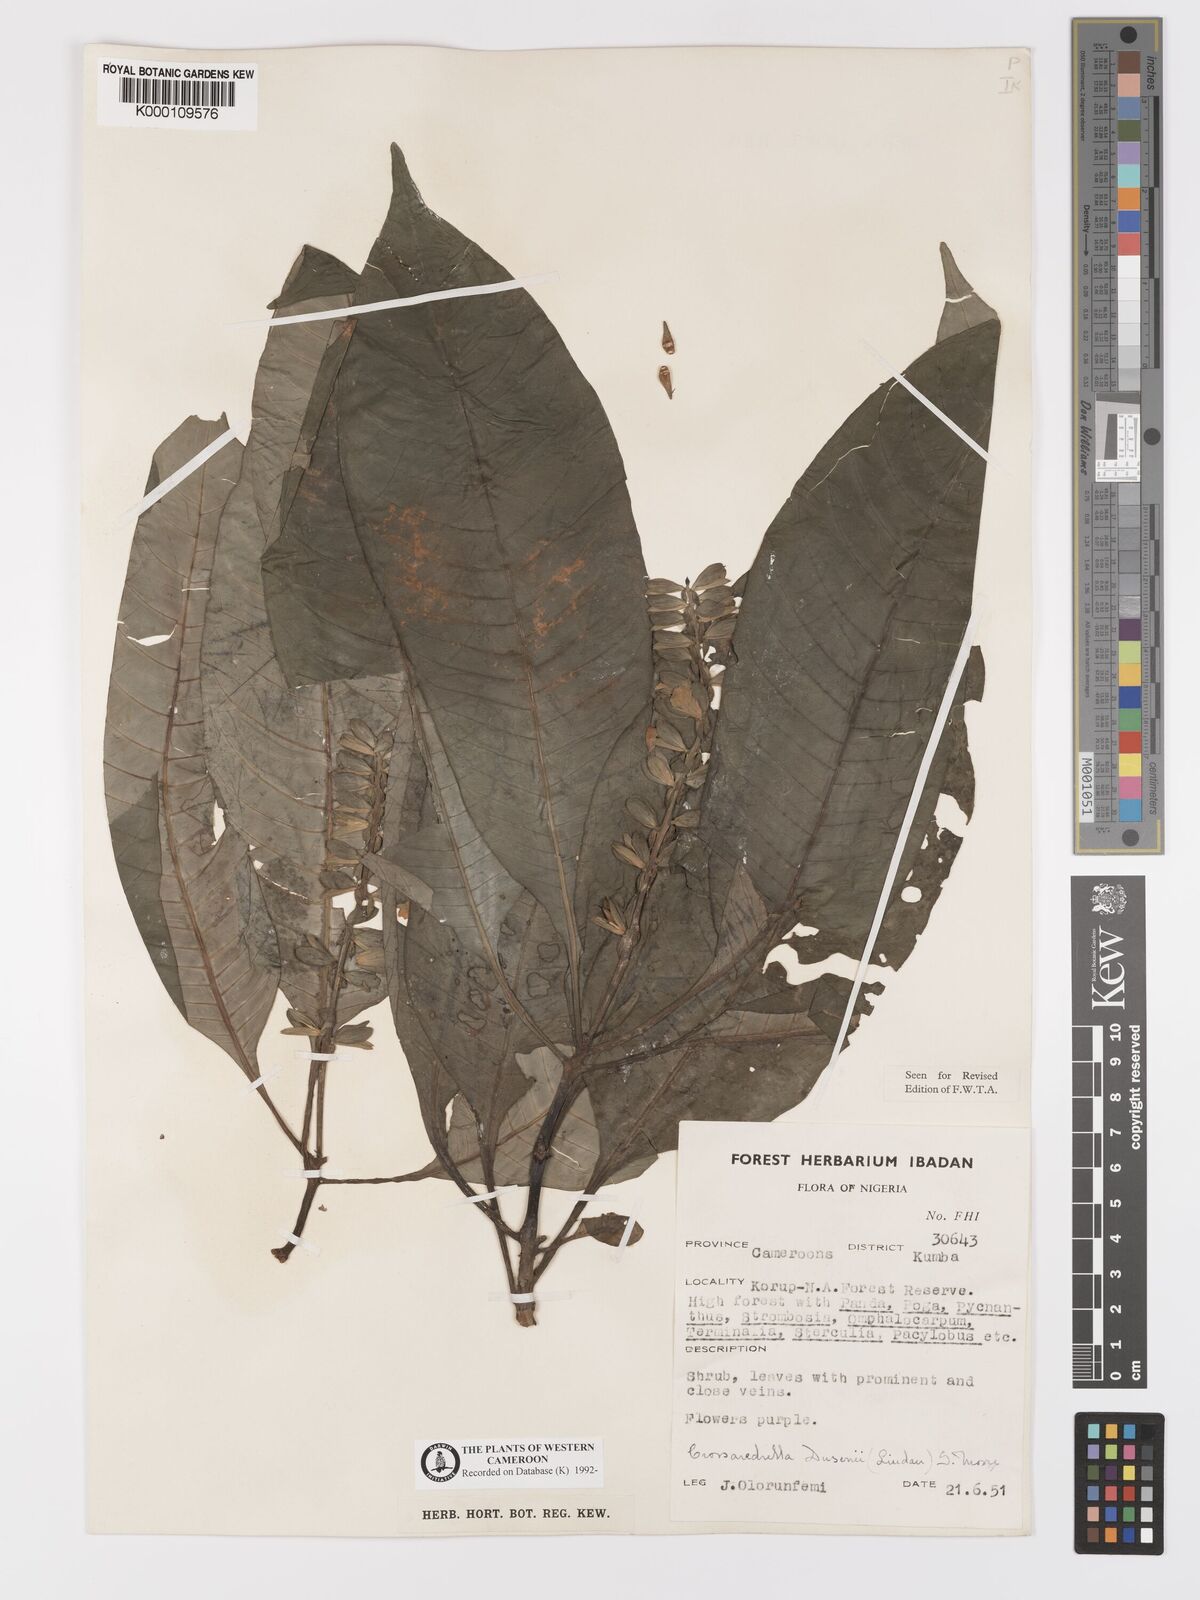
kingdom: Plantae
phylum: Tracheophyta
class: Magnoliopsida
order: Lamiales
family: Acanthaceae
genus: Crossandrella
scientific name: Crossandrella dusenii
